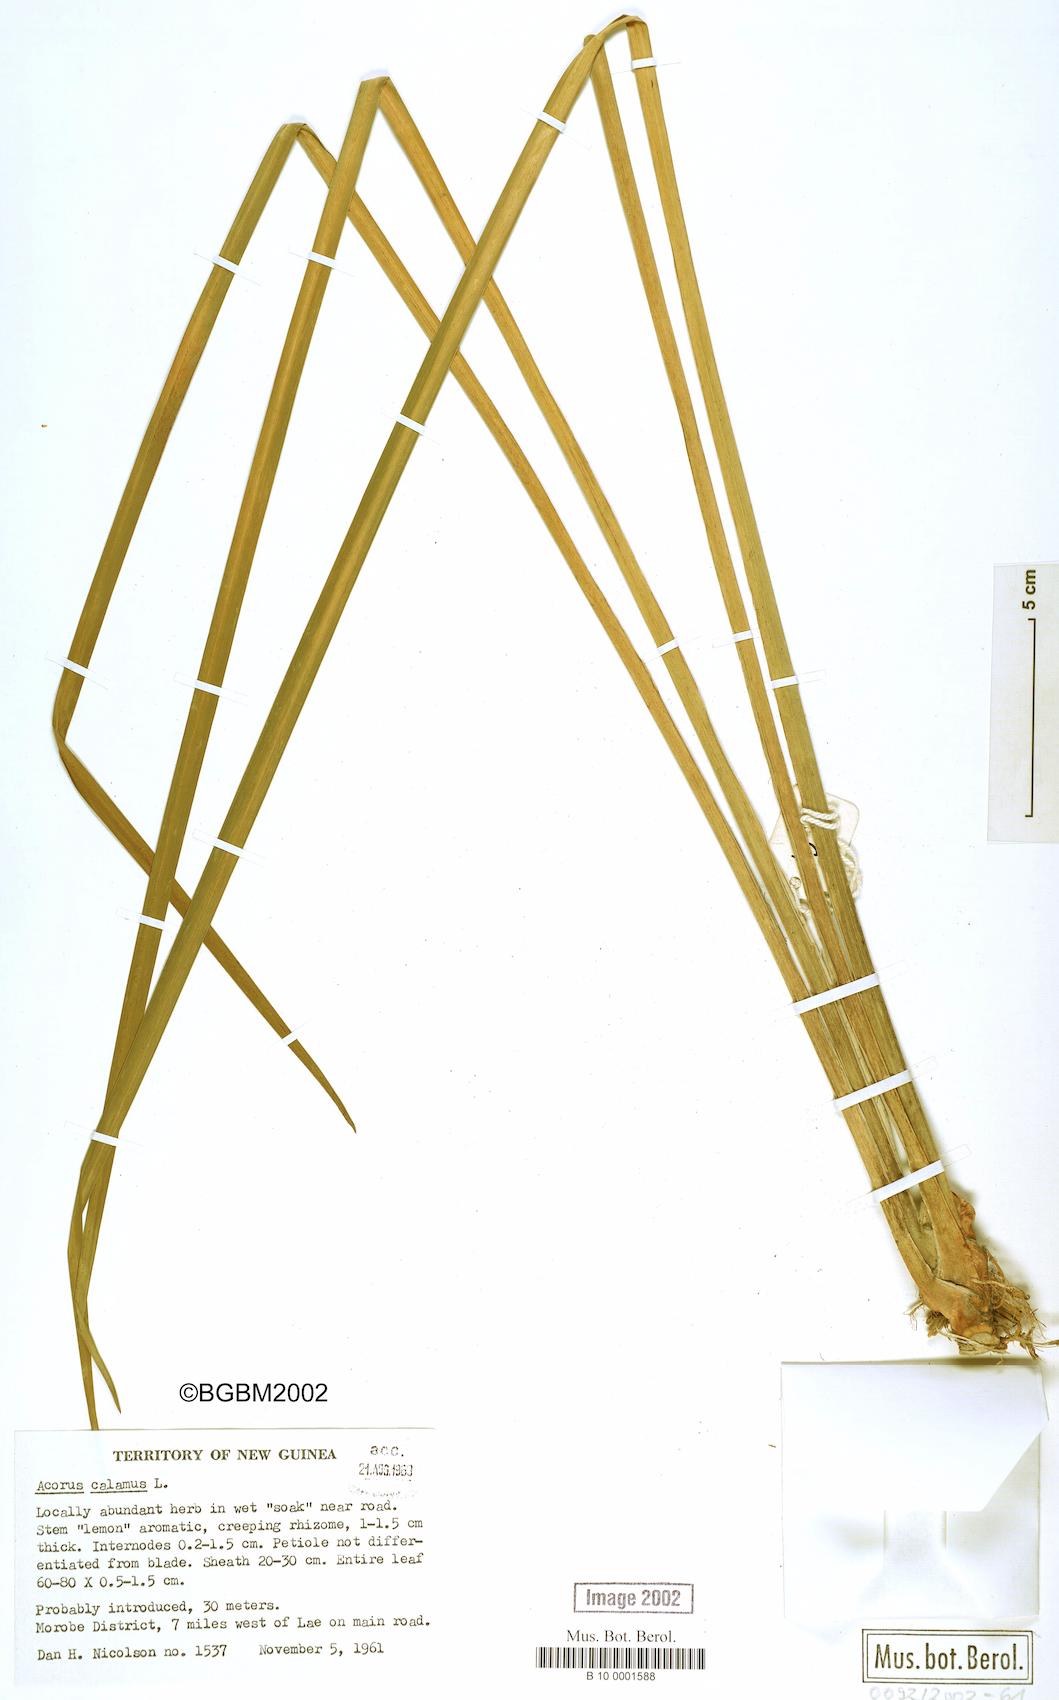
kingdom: Plantae
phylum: Tracheophyta
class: Liliopsida
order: Acorales
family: Acoraceae
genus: Acorus
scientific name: Acorus calamus
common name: Sweet-flag
